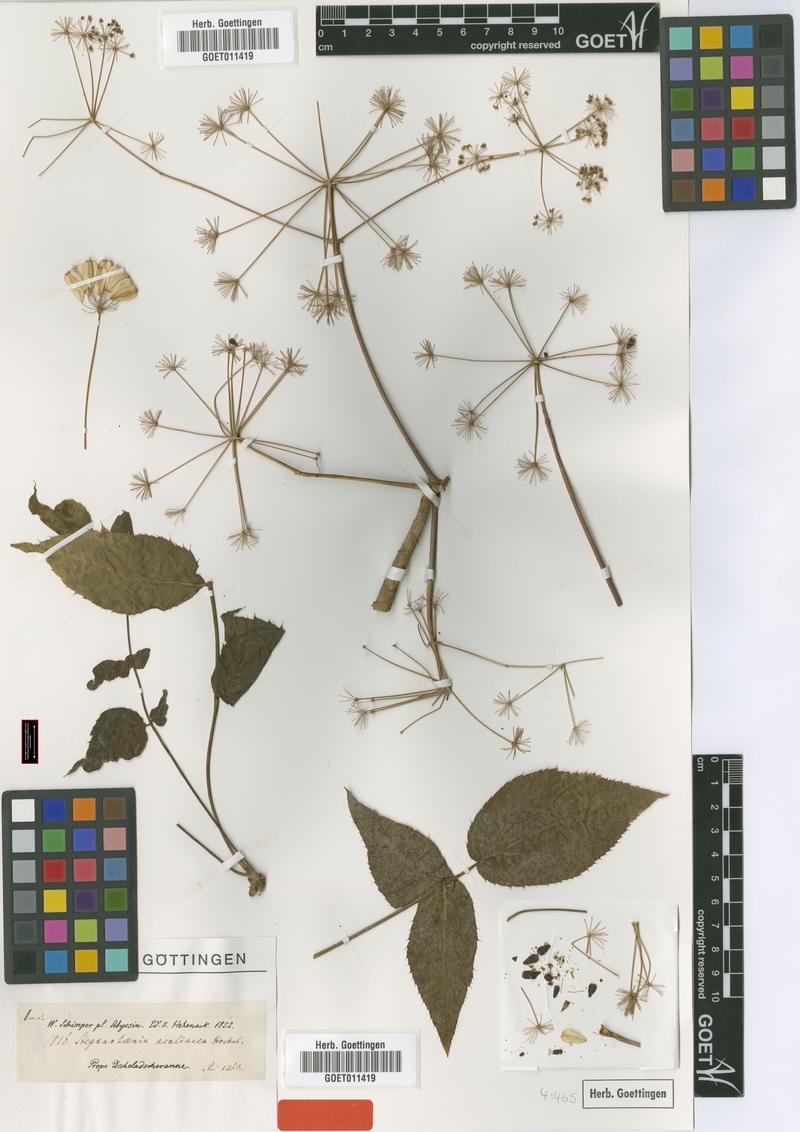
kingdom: Plantae
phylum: Tracheophyta
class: Magnoliopsida
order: Apiales
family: Apiaceae
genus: Steganotaenia
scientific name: Steganotaenia araliacea
